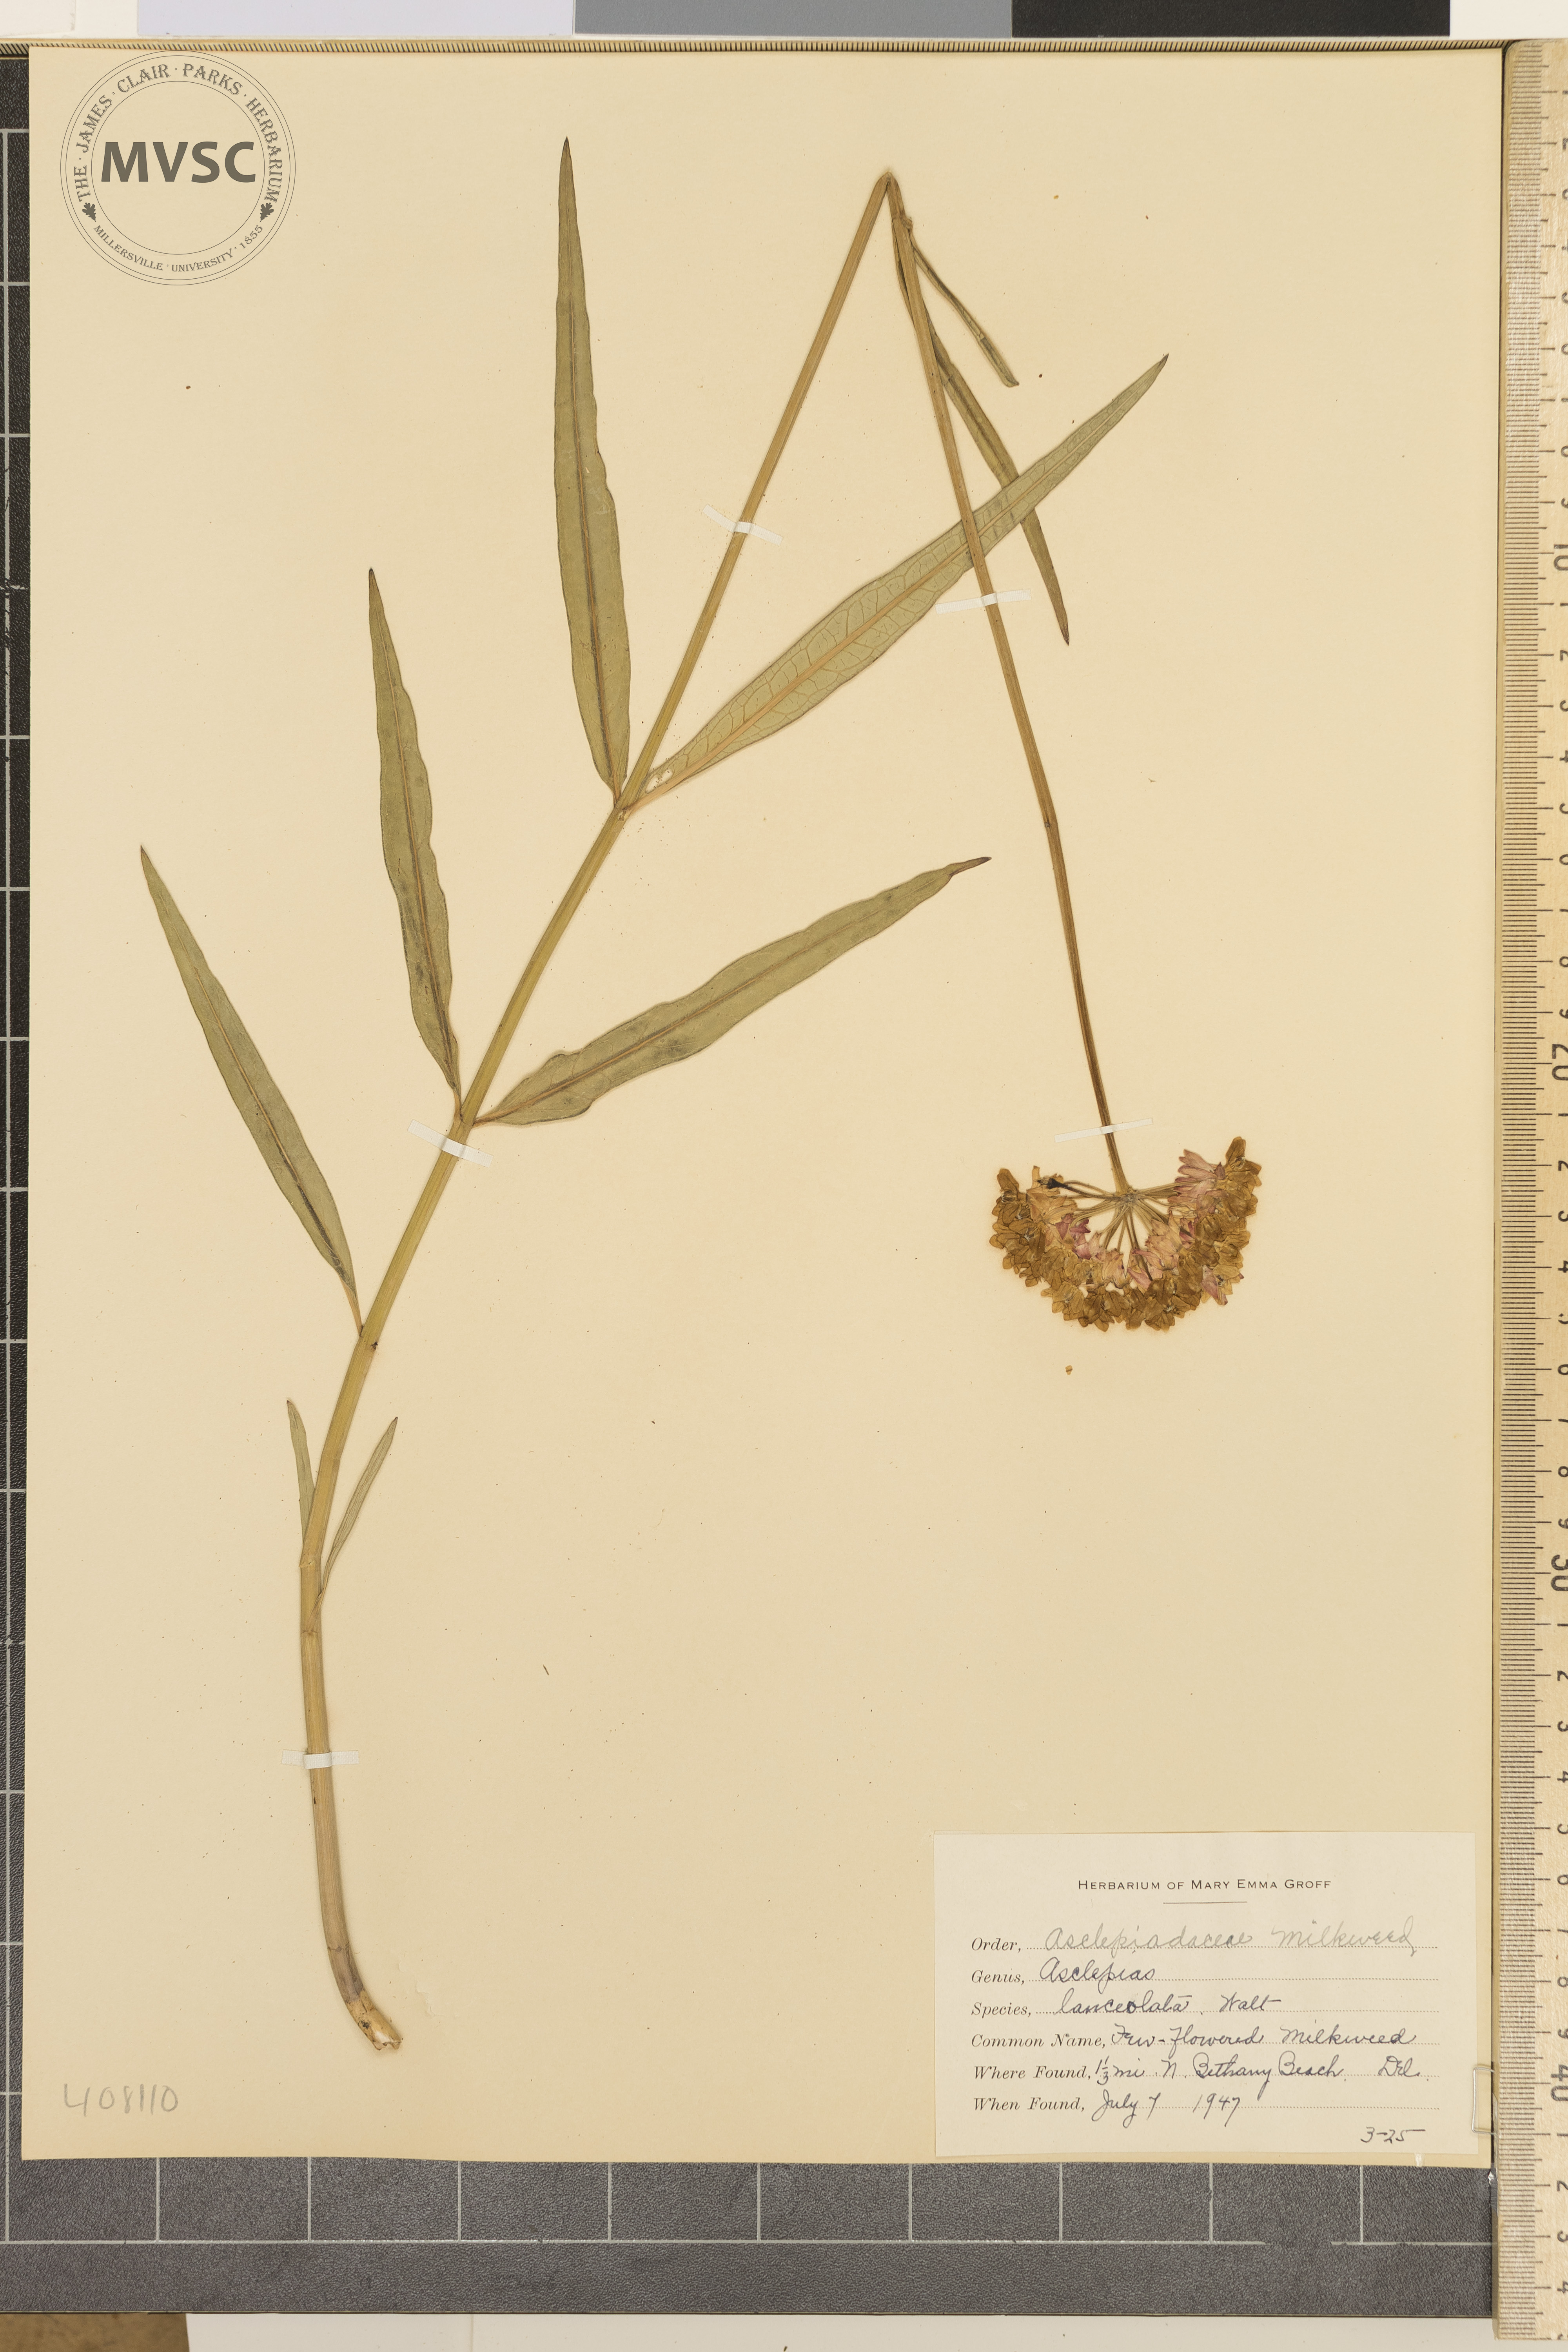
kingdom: Plantae
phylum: Tracheophyta
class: Magnoliopsida
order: Gentianales
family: Apocynaceae
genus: Asclepias
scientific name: Asclepias lanceolata
